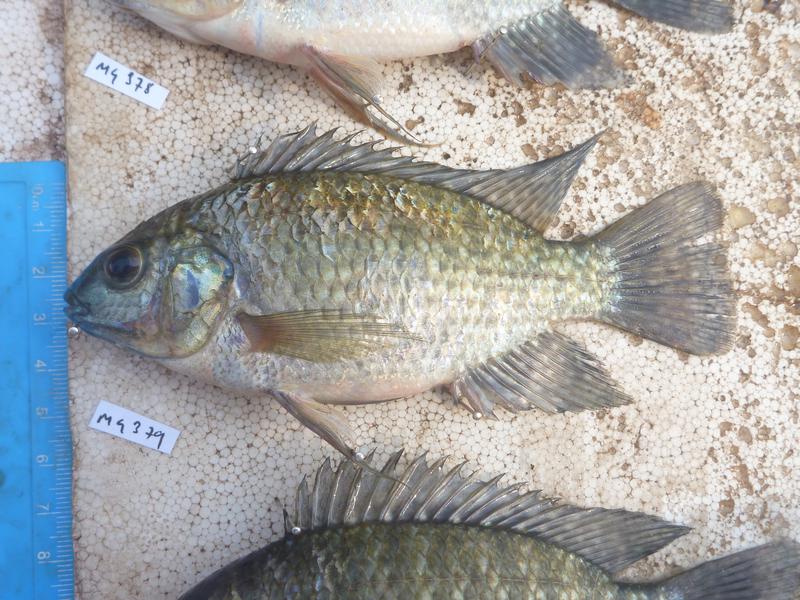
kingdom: Animalia
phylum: Chordata
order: Perciformes
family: Cichlidae
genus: Oreochromis
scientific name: Oreochromis leucostictus
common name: Blue spotted tilapia
